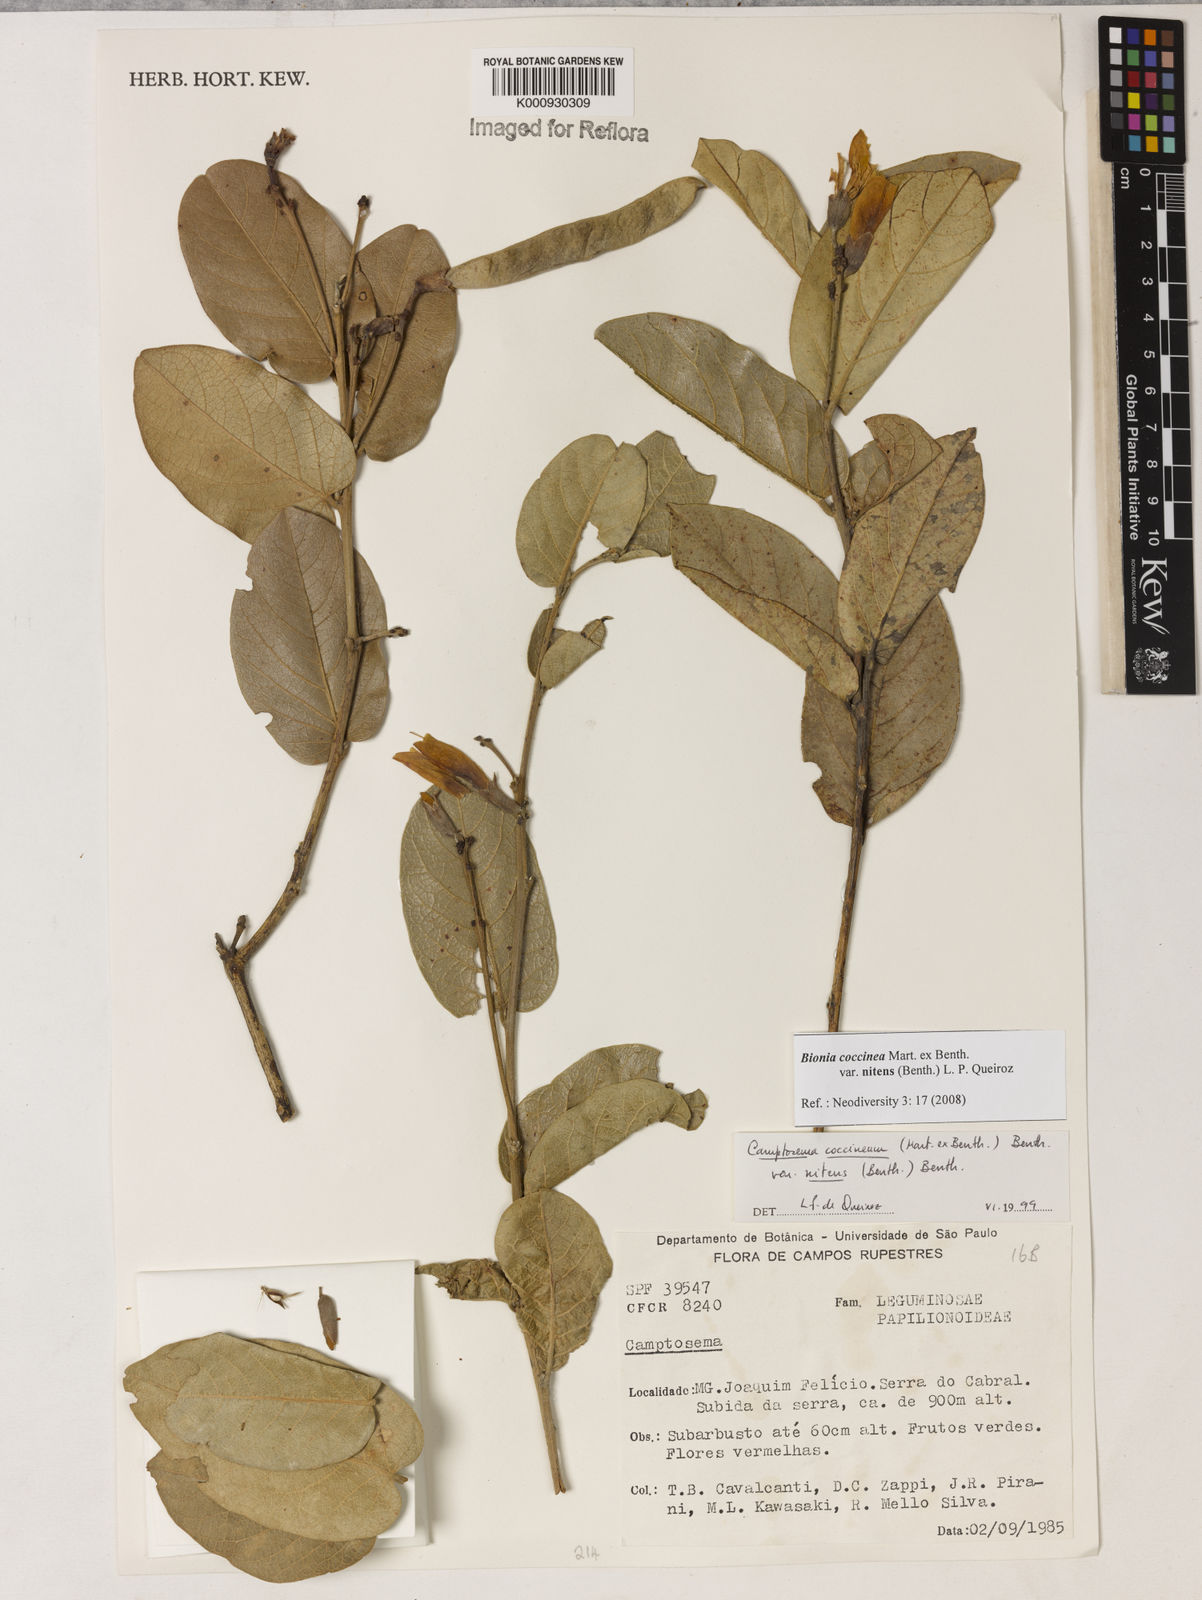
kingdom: Plantae
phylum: Tracheophyta
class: Magnoliopsida
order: Fabales
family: Fabaceae
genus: Camptosema
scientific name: Camptosema coccineum
